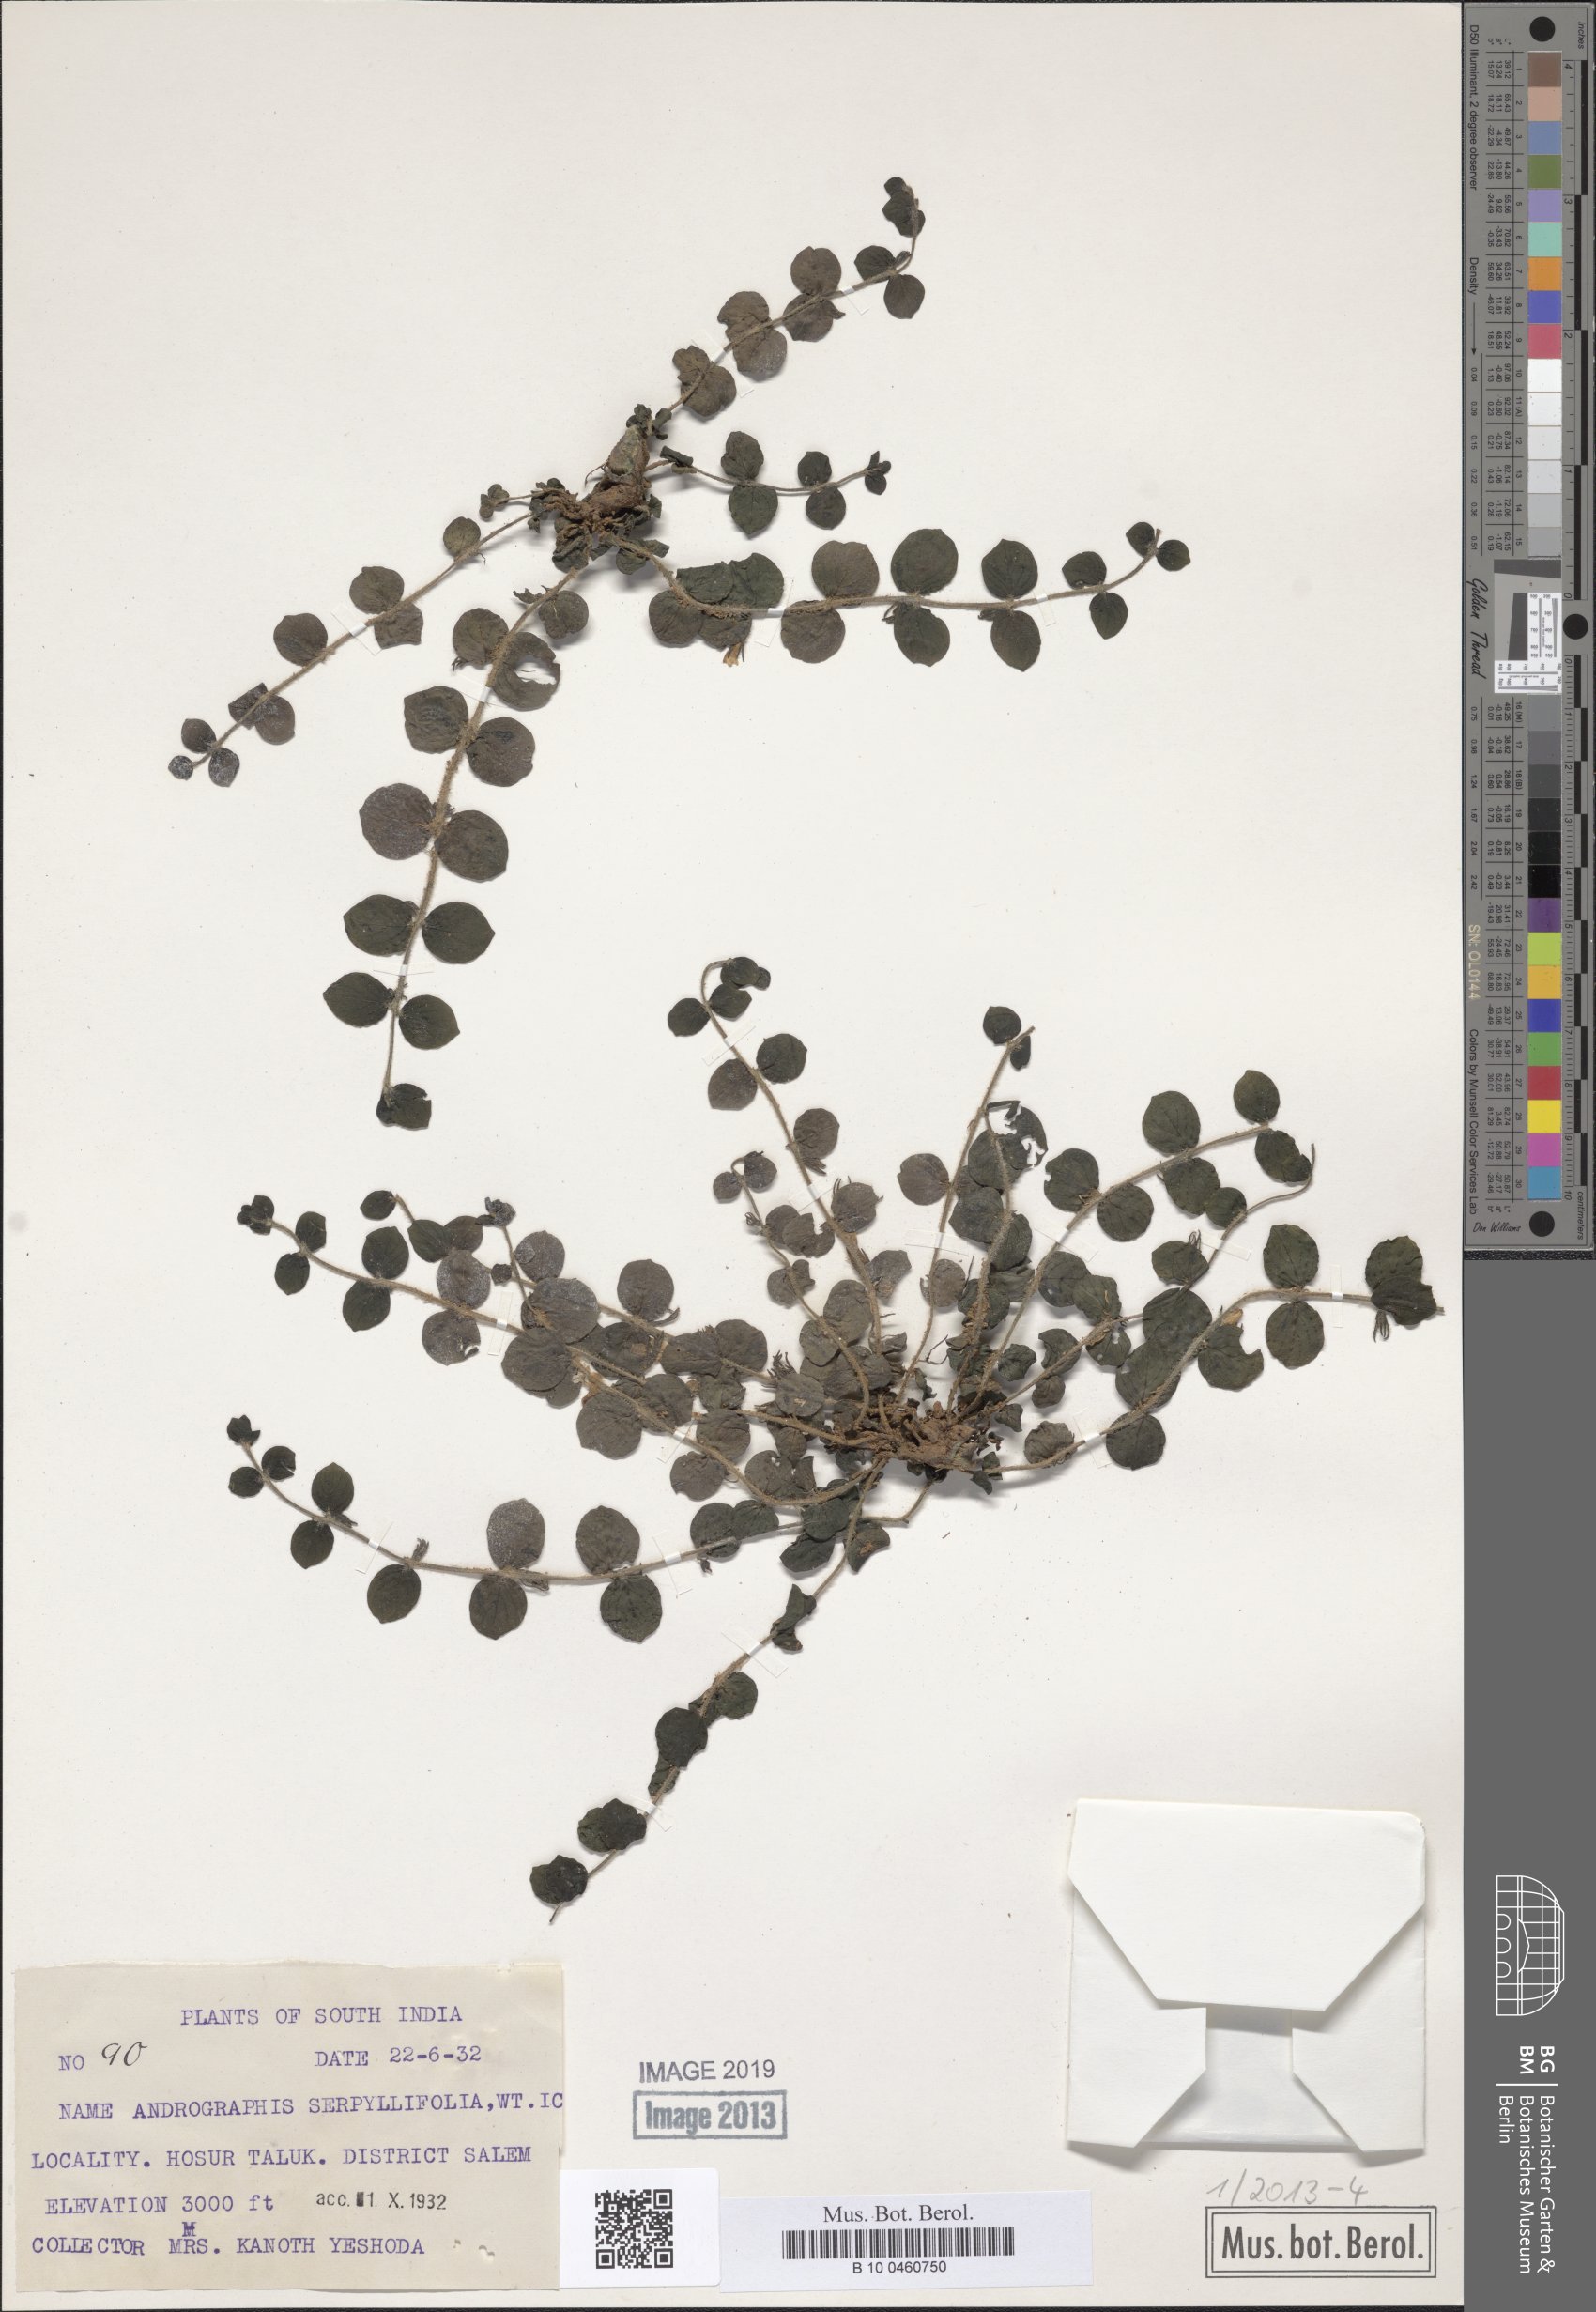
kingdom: Plantae
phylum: Tracheophyta
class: Magnoliopsida
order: Lamiales
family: Acanthaceae
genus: Andrographis
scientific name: Andrographis serpyllifolia
